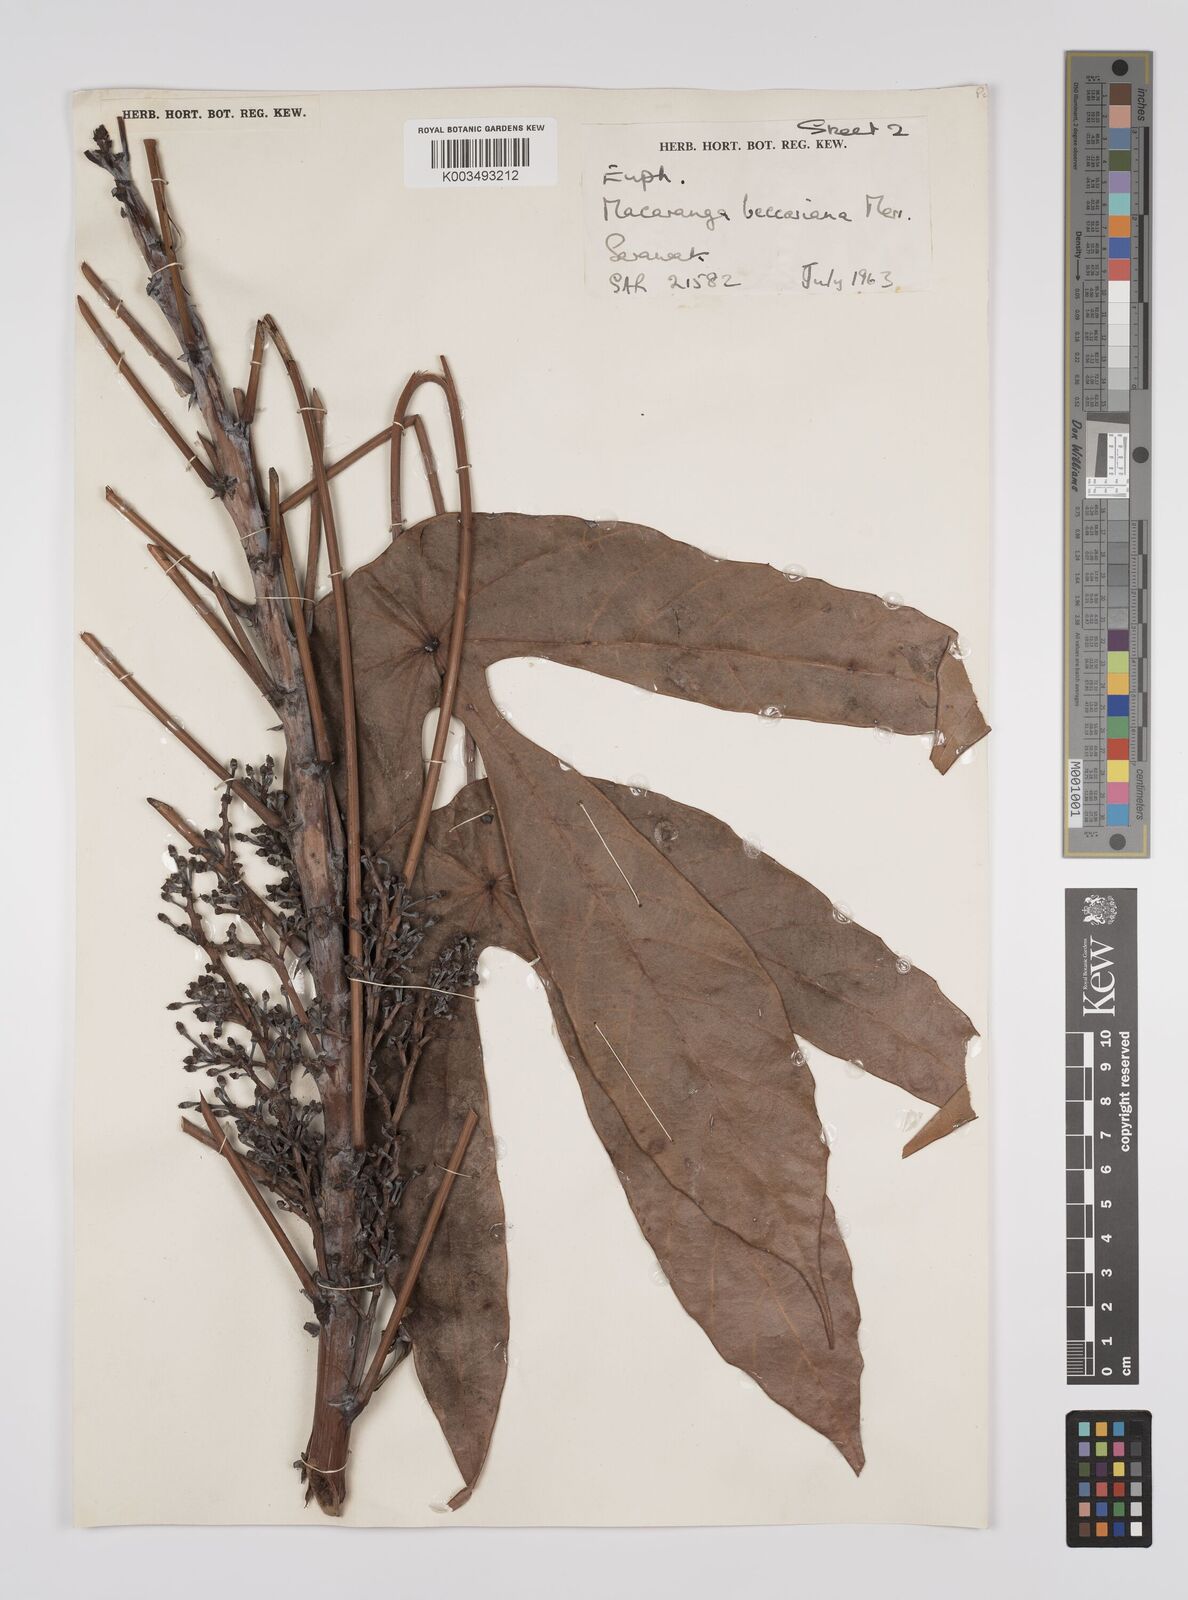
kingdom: Plantae
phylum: Tracheophyta
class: Magnoliopsida
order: Malpighiales
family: Euphorbiaceae
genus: Macaranga
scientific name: Macaranga beccariana
